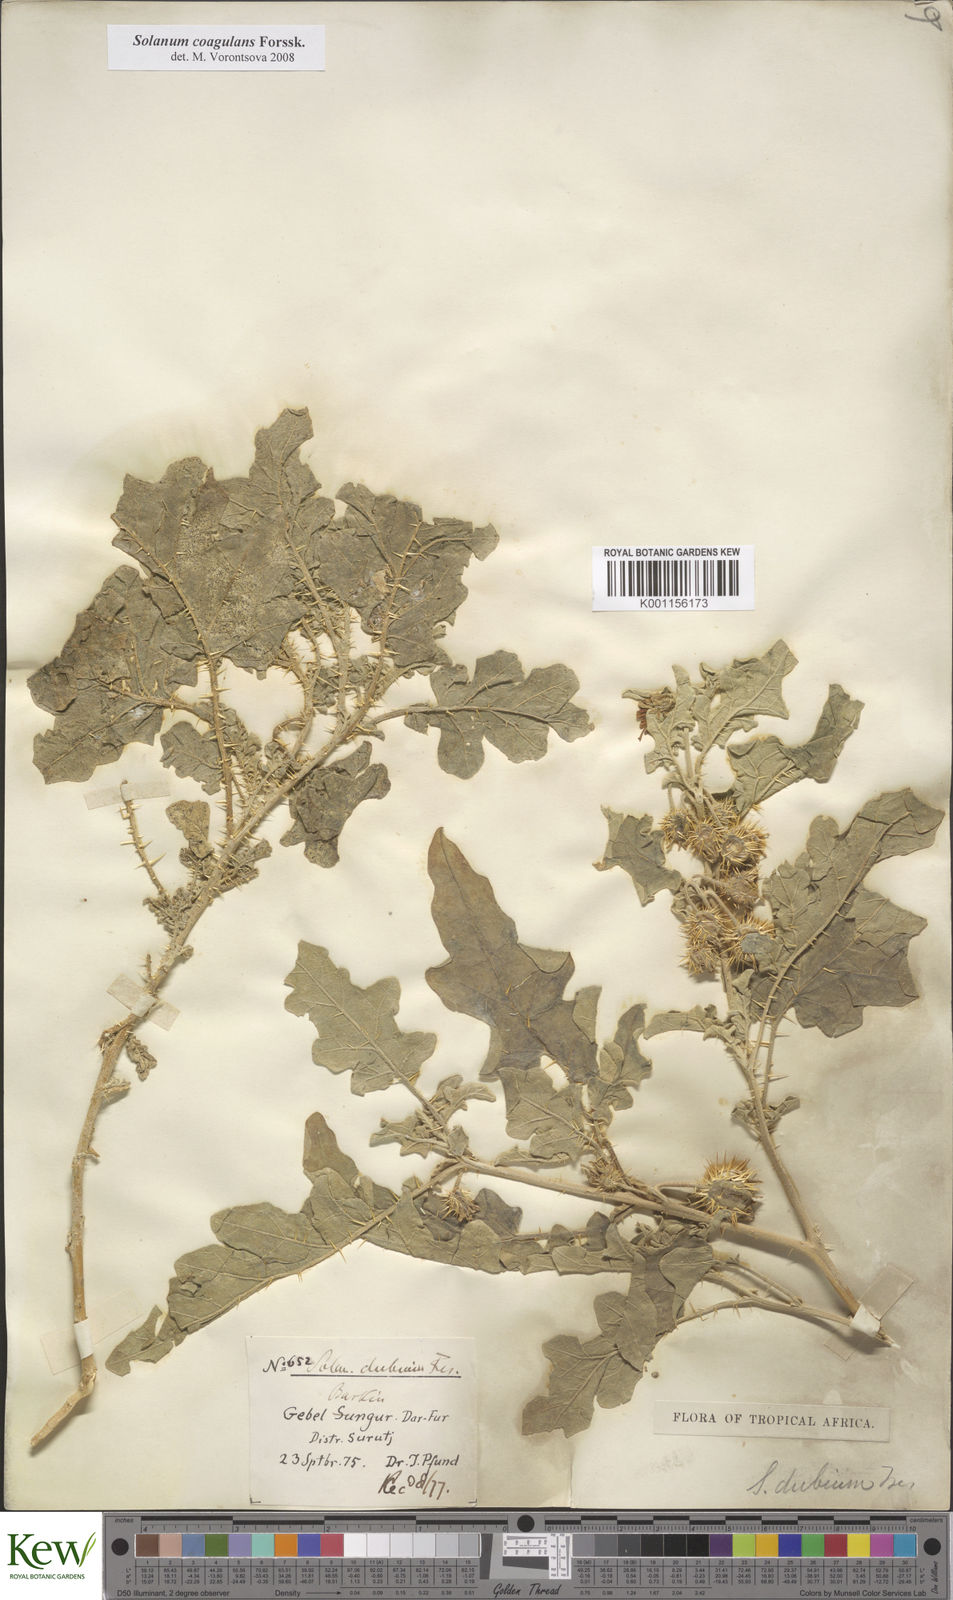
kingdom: Plantae
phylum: Tracheophyta
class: Magnoliopsida
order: Solanales
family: Solanaceae
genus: Solanum
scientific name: Solanum coagulans
